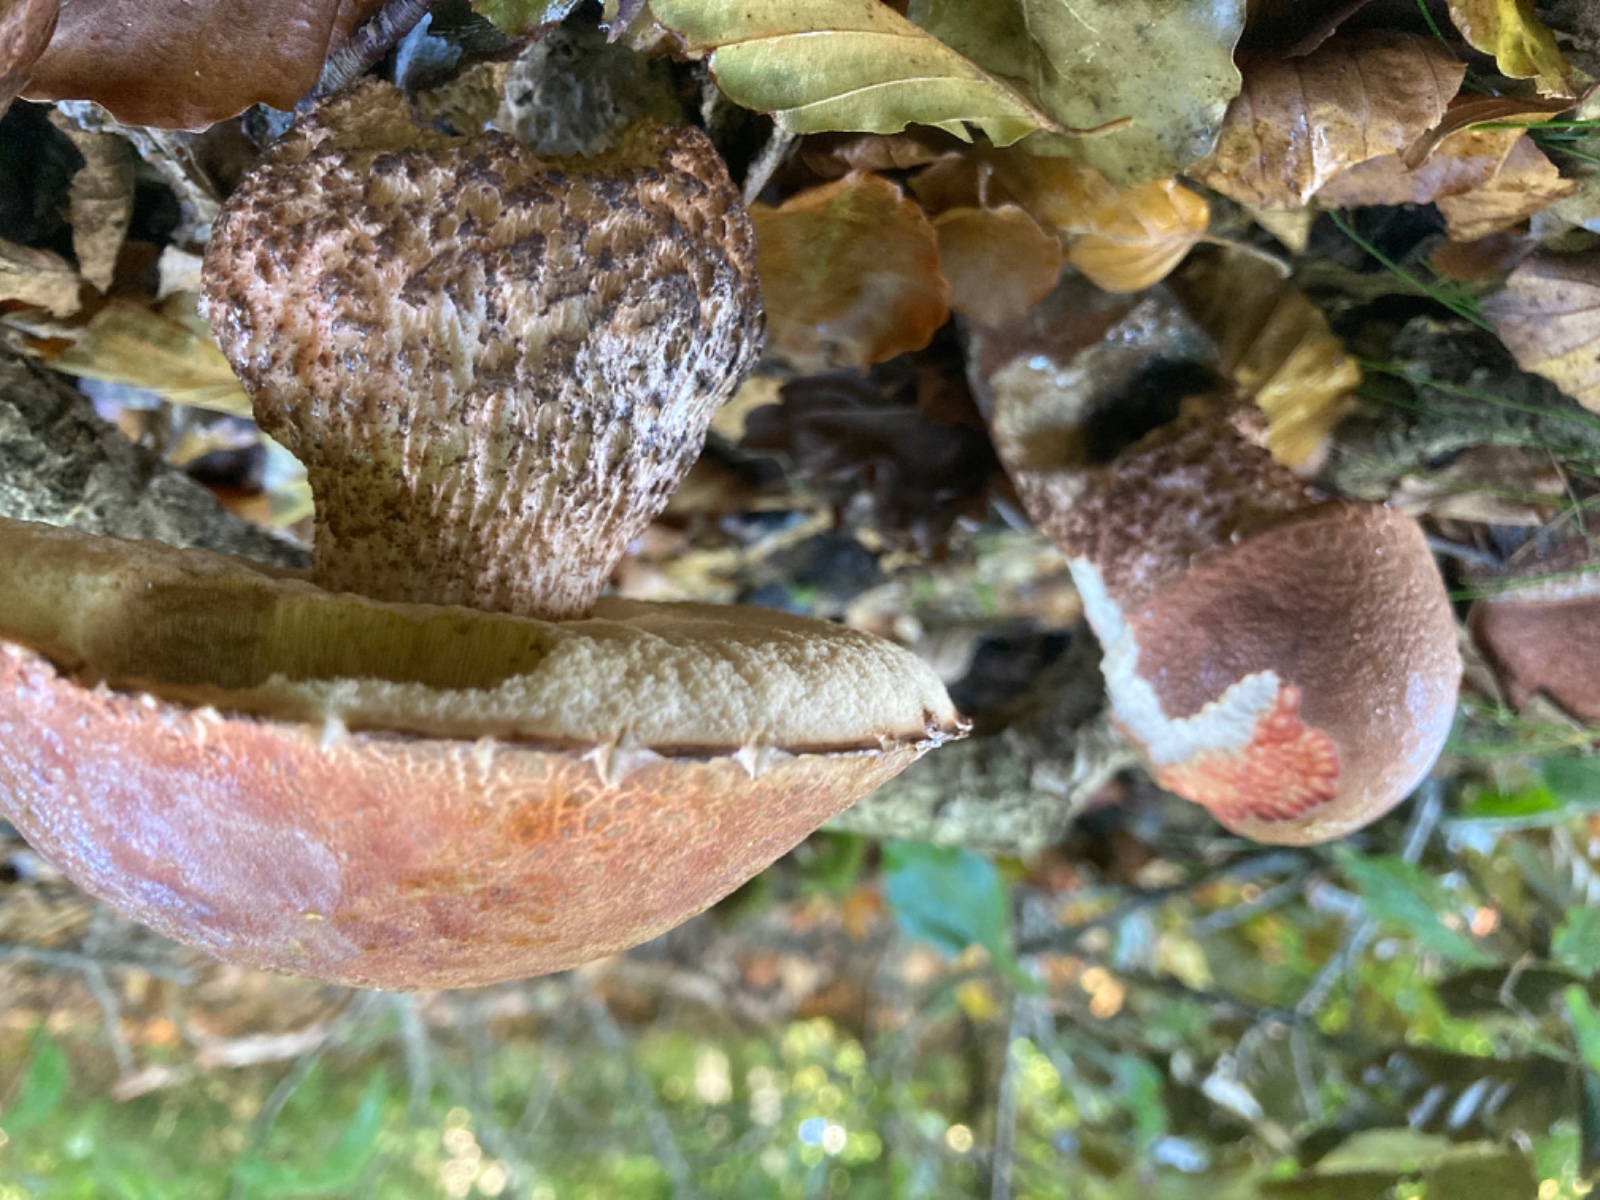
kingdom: Fungi
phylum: Basidiomycota
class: Agaricomycetes
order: Boletales
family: Boletaceae
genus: Leccinum
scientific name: Leccinum aurantiacum
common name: rustrød skælrørhat
